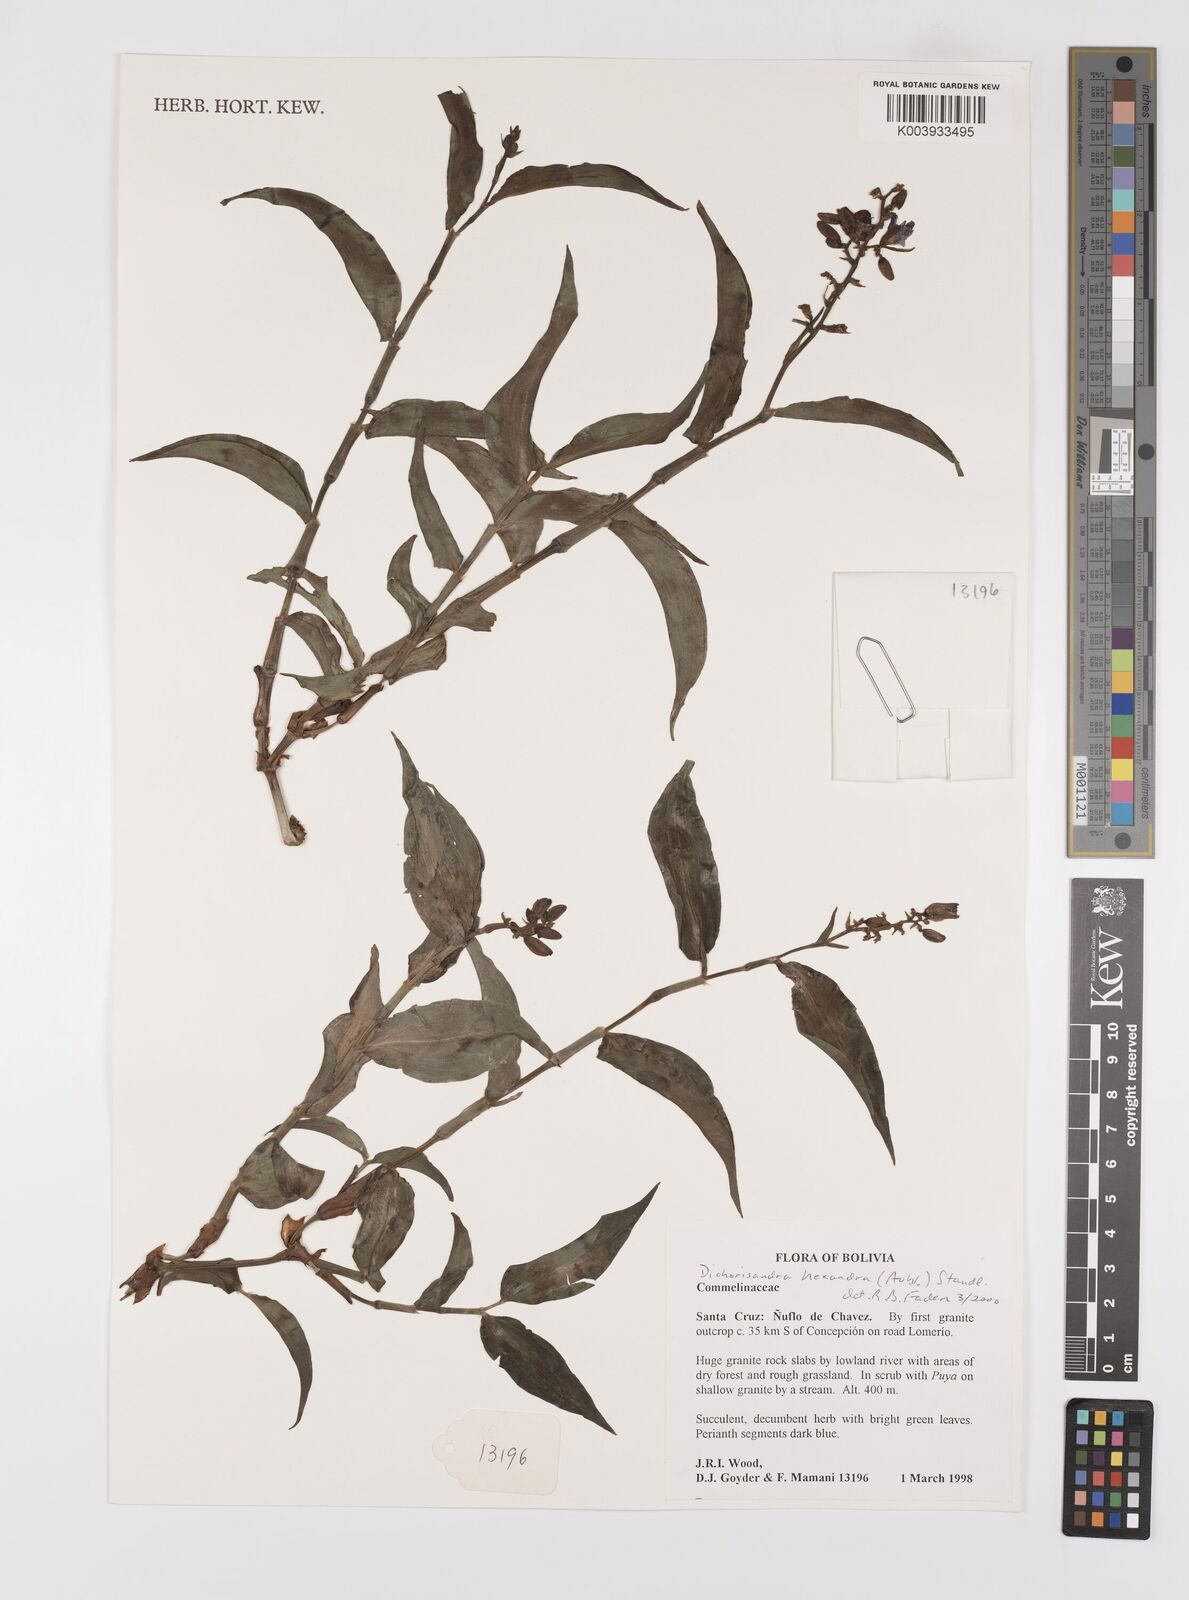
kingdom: Plantae
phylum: Tracheophyta
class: Liliopsida
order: Commelinales
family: Commelinaceae
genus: Dichorisandra
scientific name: Dichorisandra hexandra
